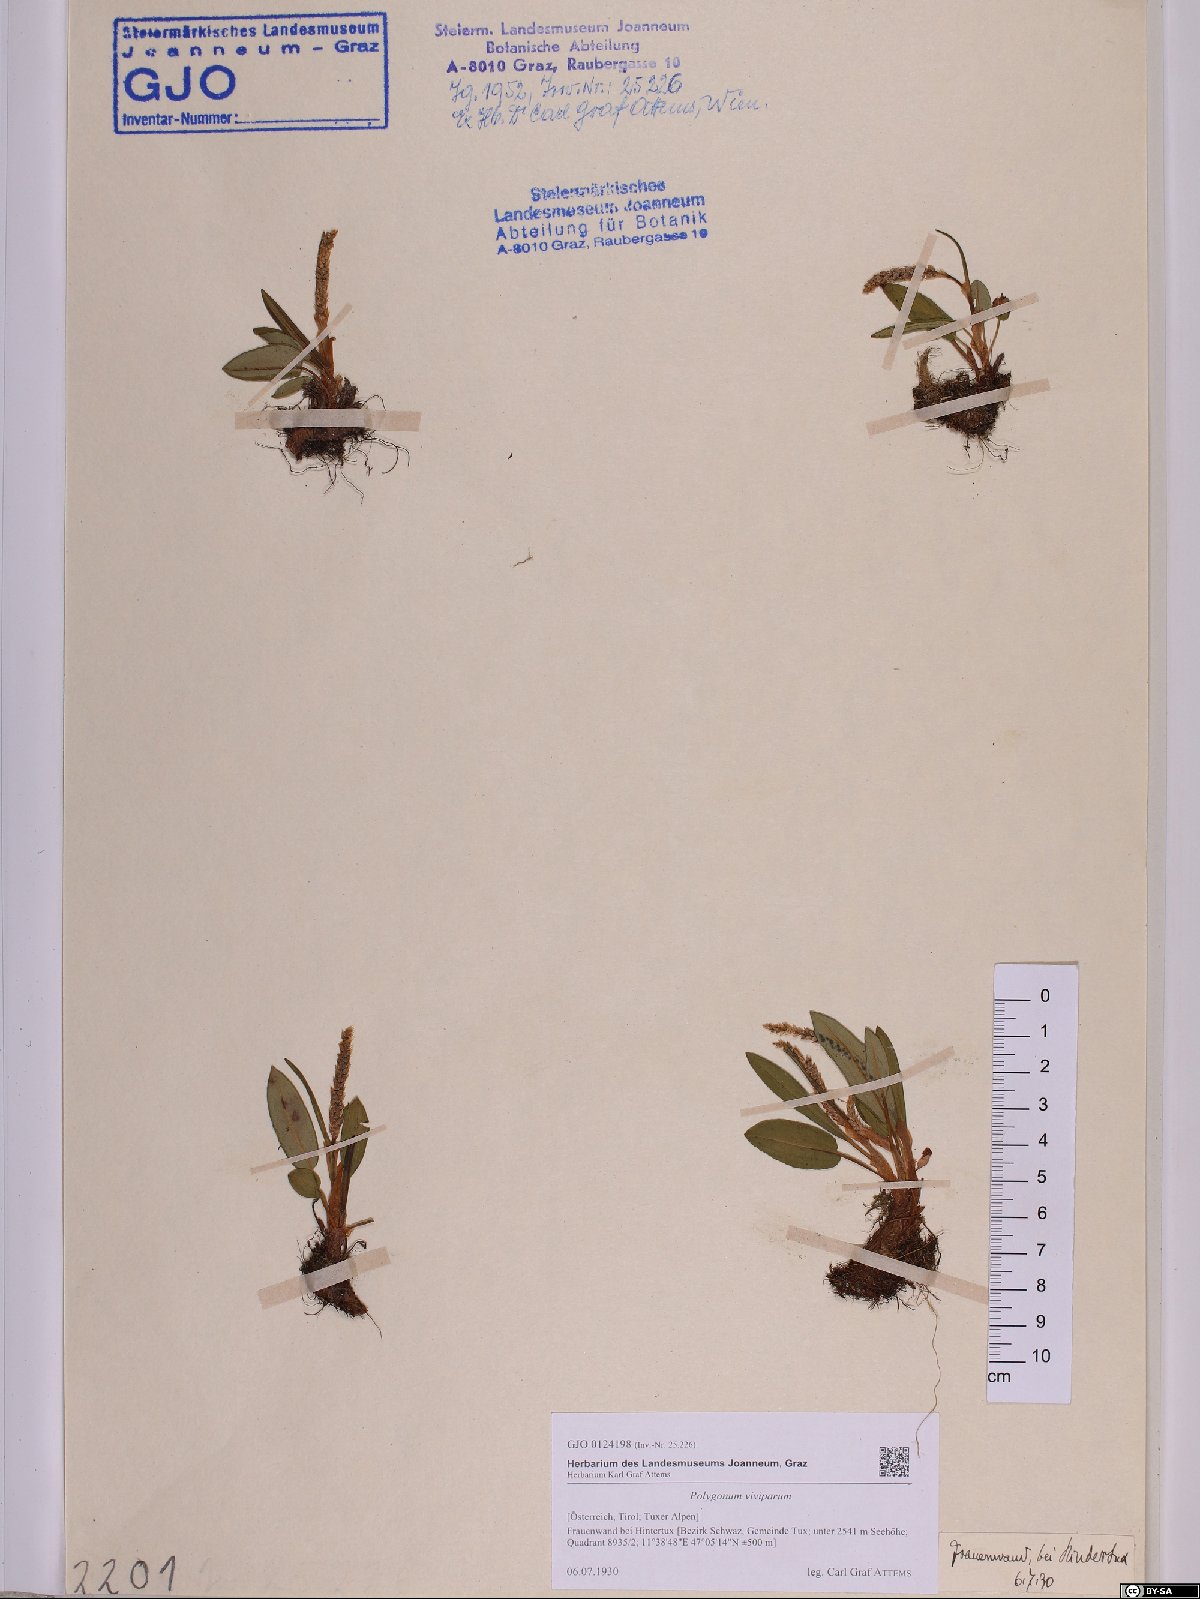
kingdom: Plantae
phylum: Tracheophyta
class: Magnoliopsida
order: Caryophyllales
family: Polygonaceae
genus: Bistorta
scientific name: Bistorta vivipara
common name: Alpine bistort
